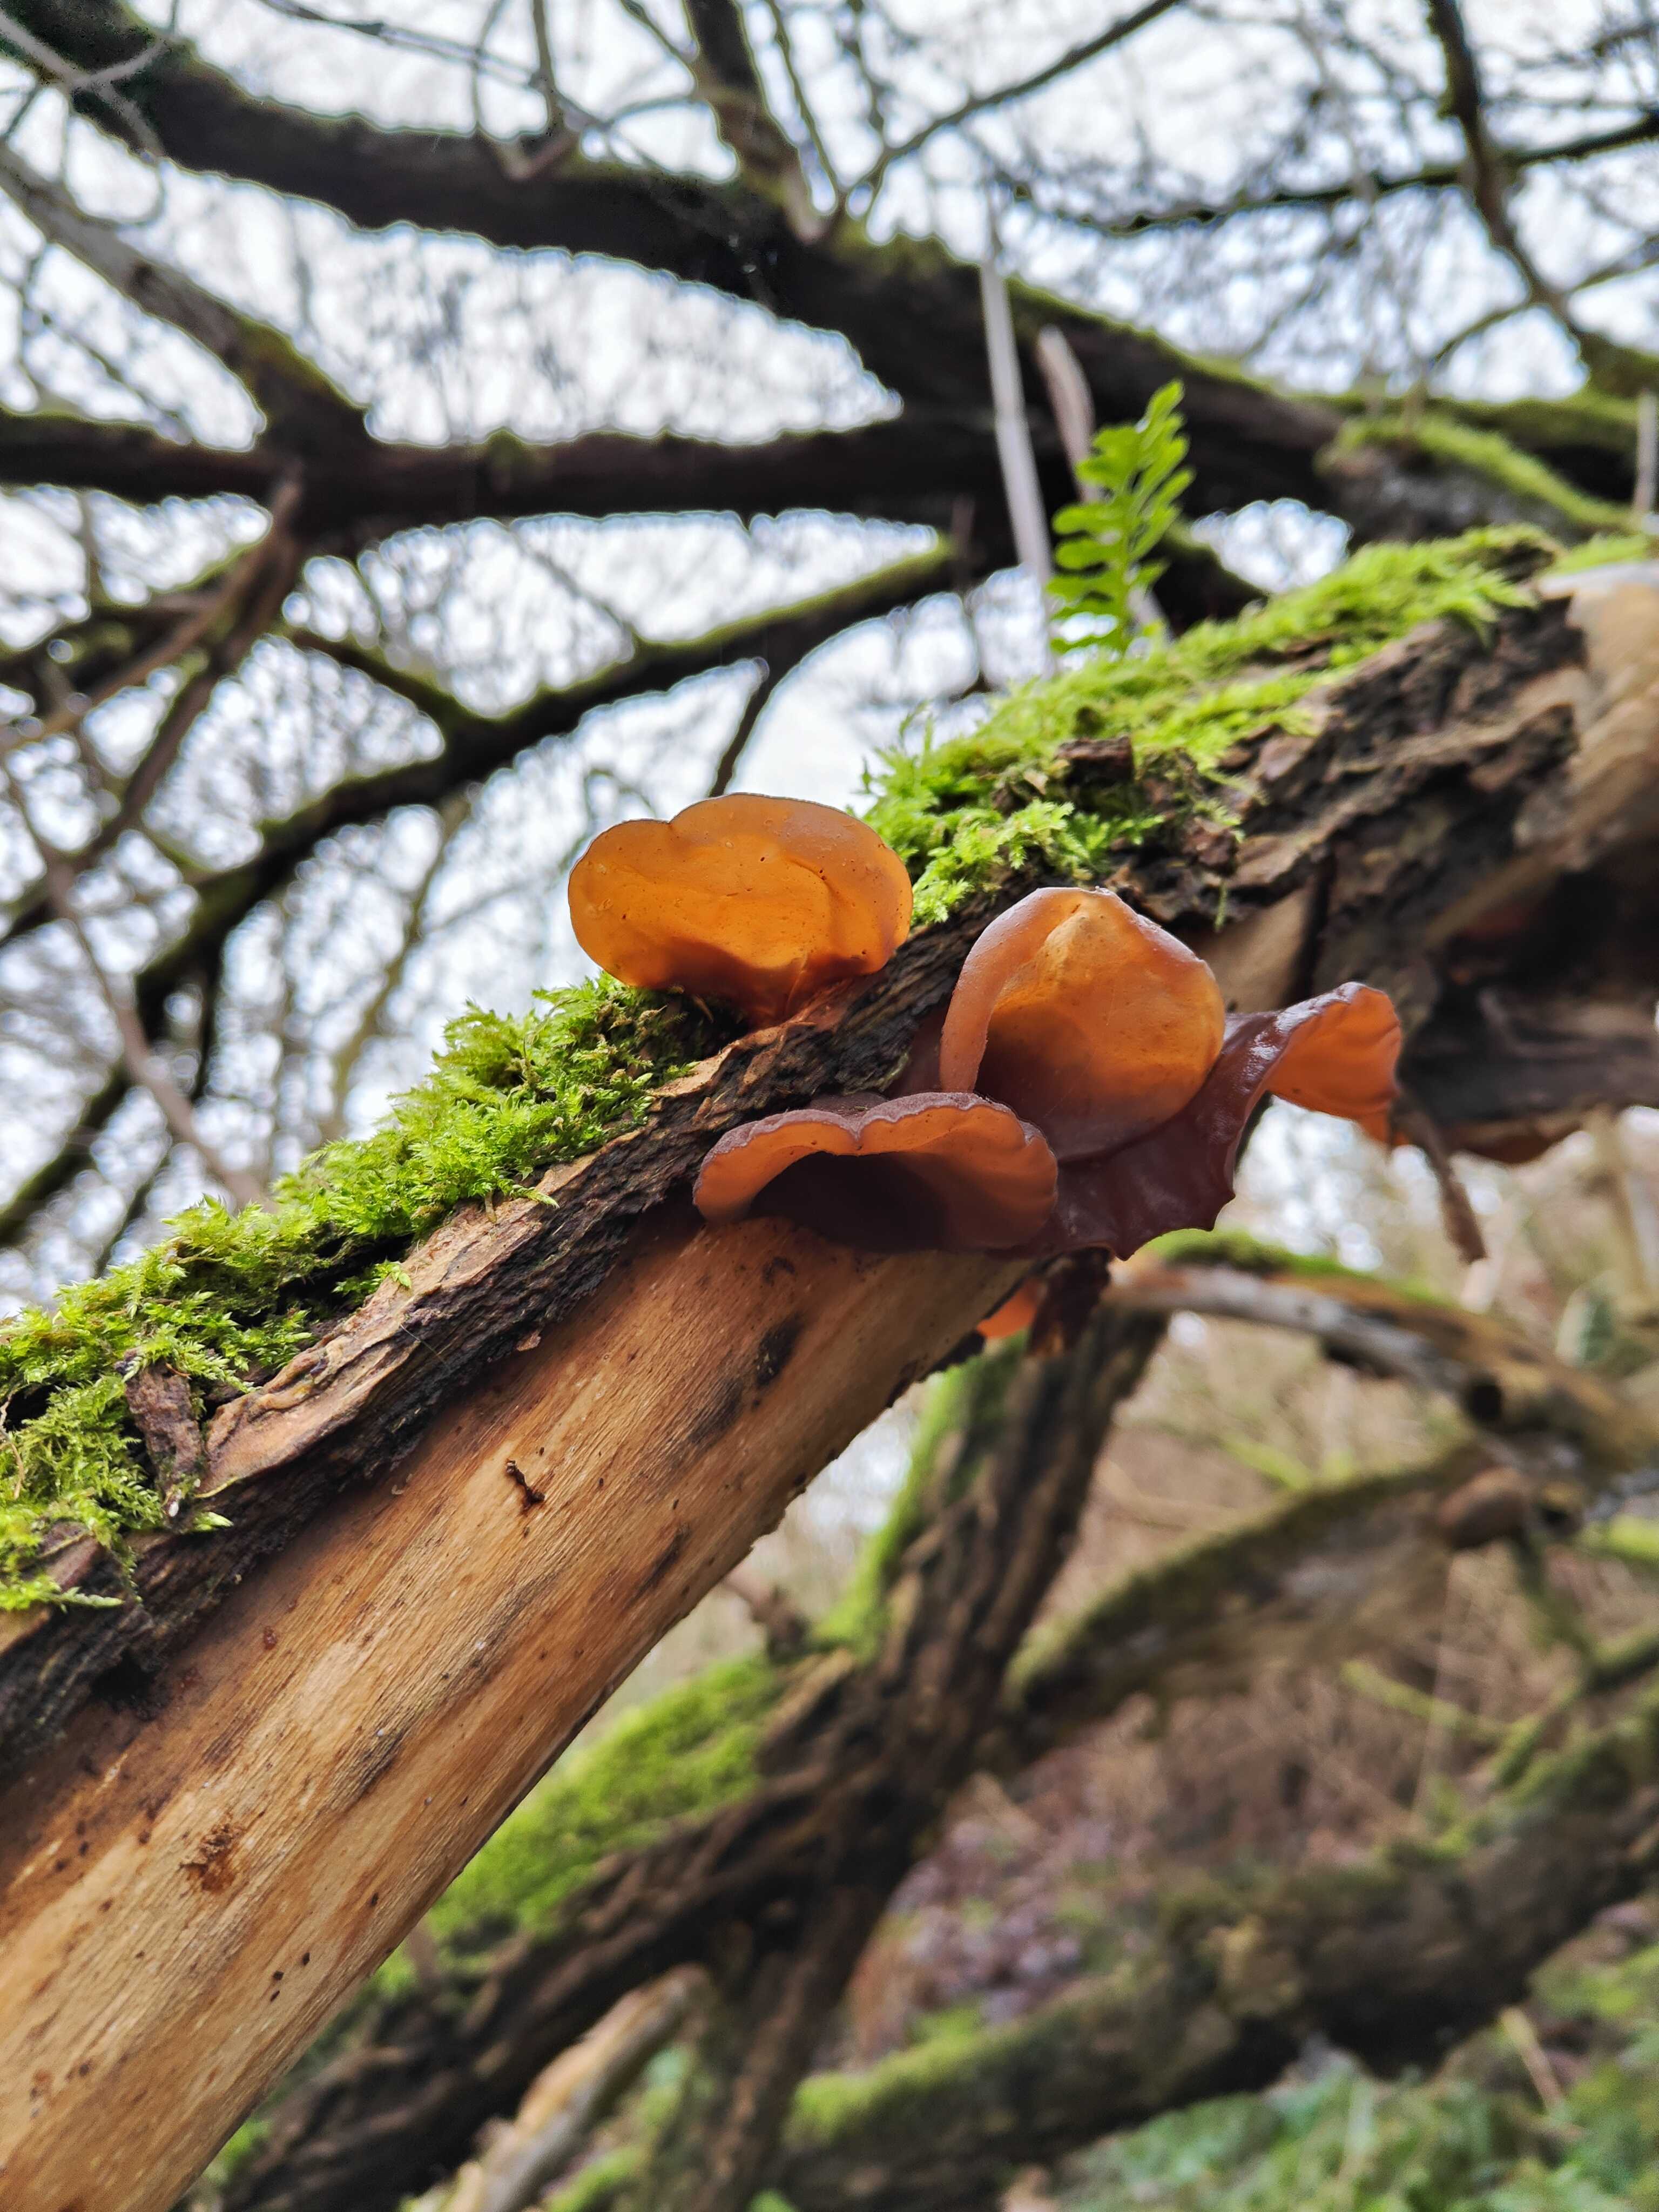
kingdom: Fungi
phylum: Basidiomycota
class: Agaricomycetes
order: Auriculariales
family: Auriculariaceae
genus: Auricularia
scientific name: Auricularia auricula-judae
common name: almindelig judasøre
